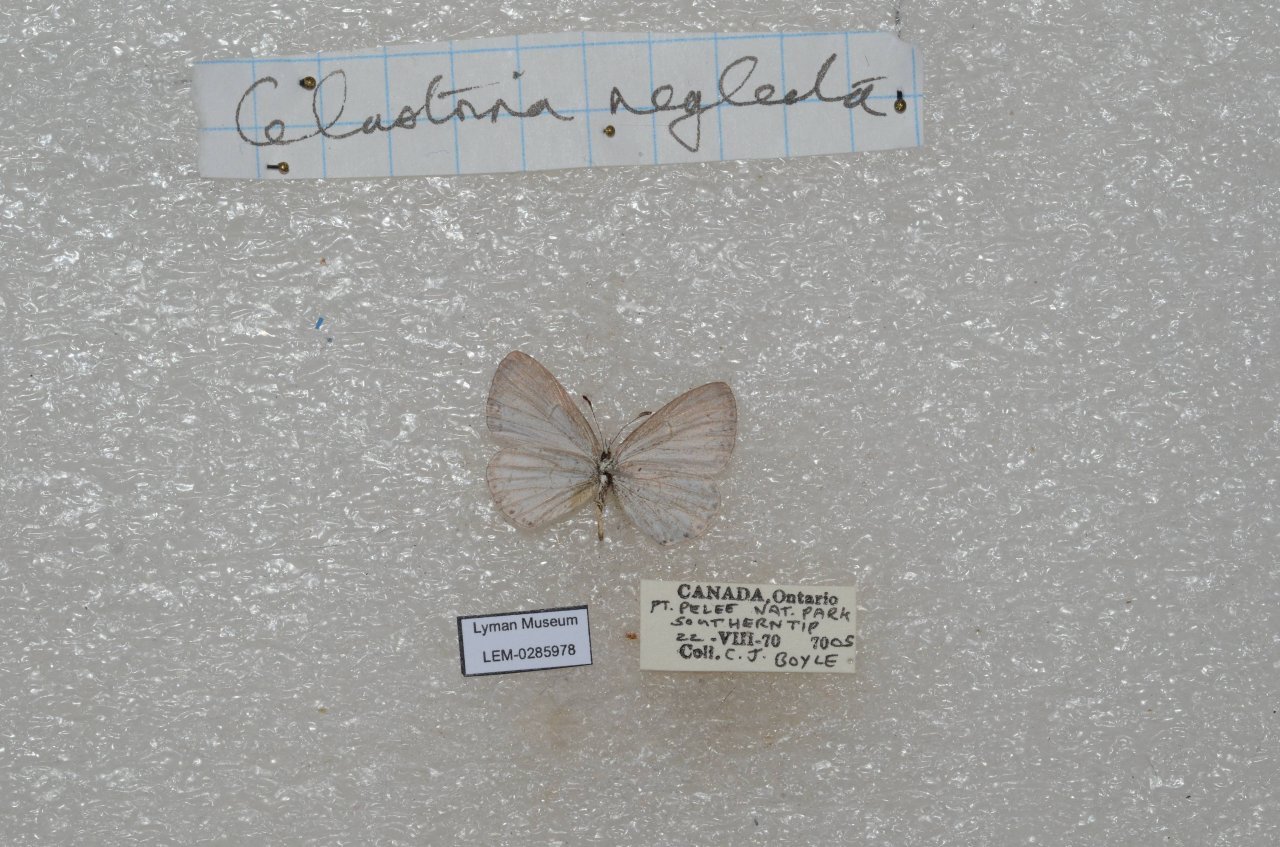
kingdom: Animalia
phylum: Arthropoda
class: Insecta
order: Lepidoptera
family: Lycaenidae
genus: Cyaniris
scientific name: Cyaniris neglecta
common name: Summer Azure
